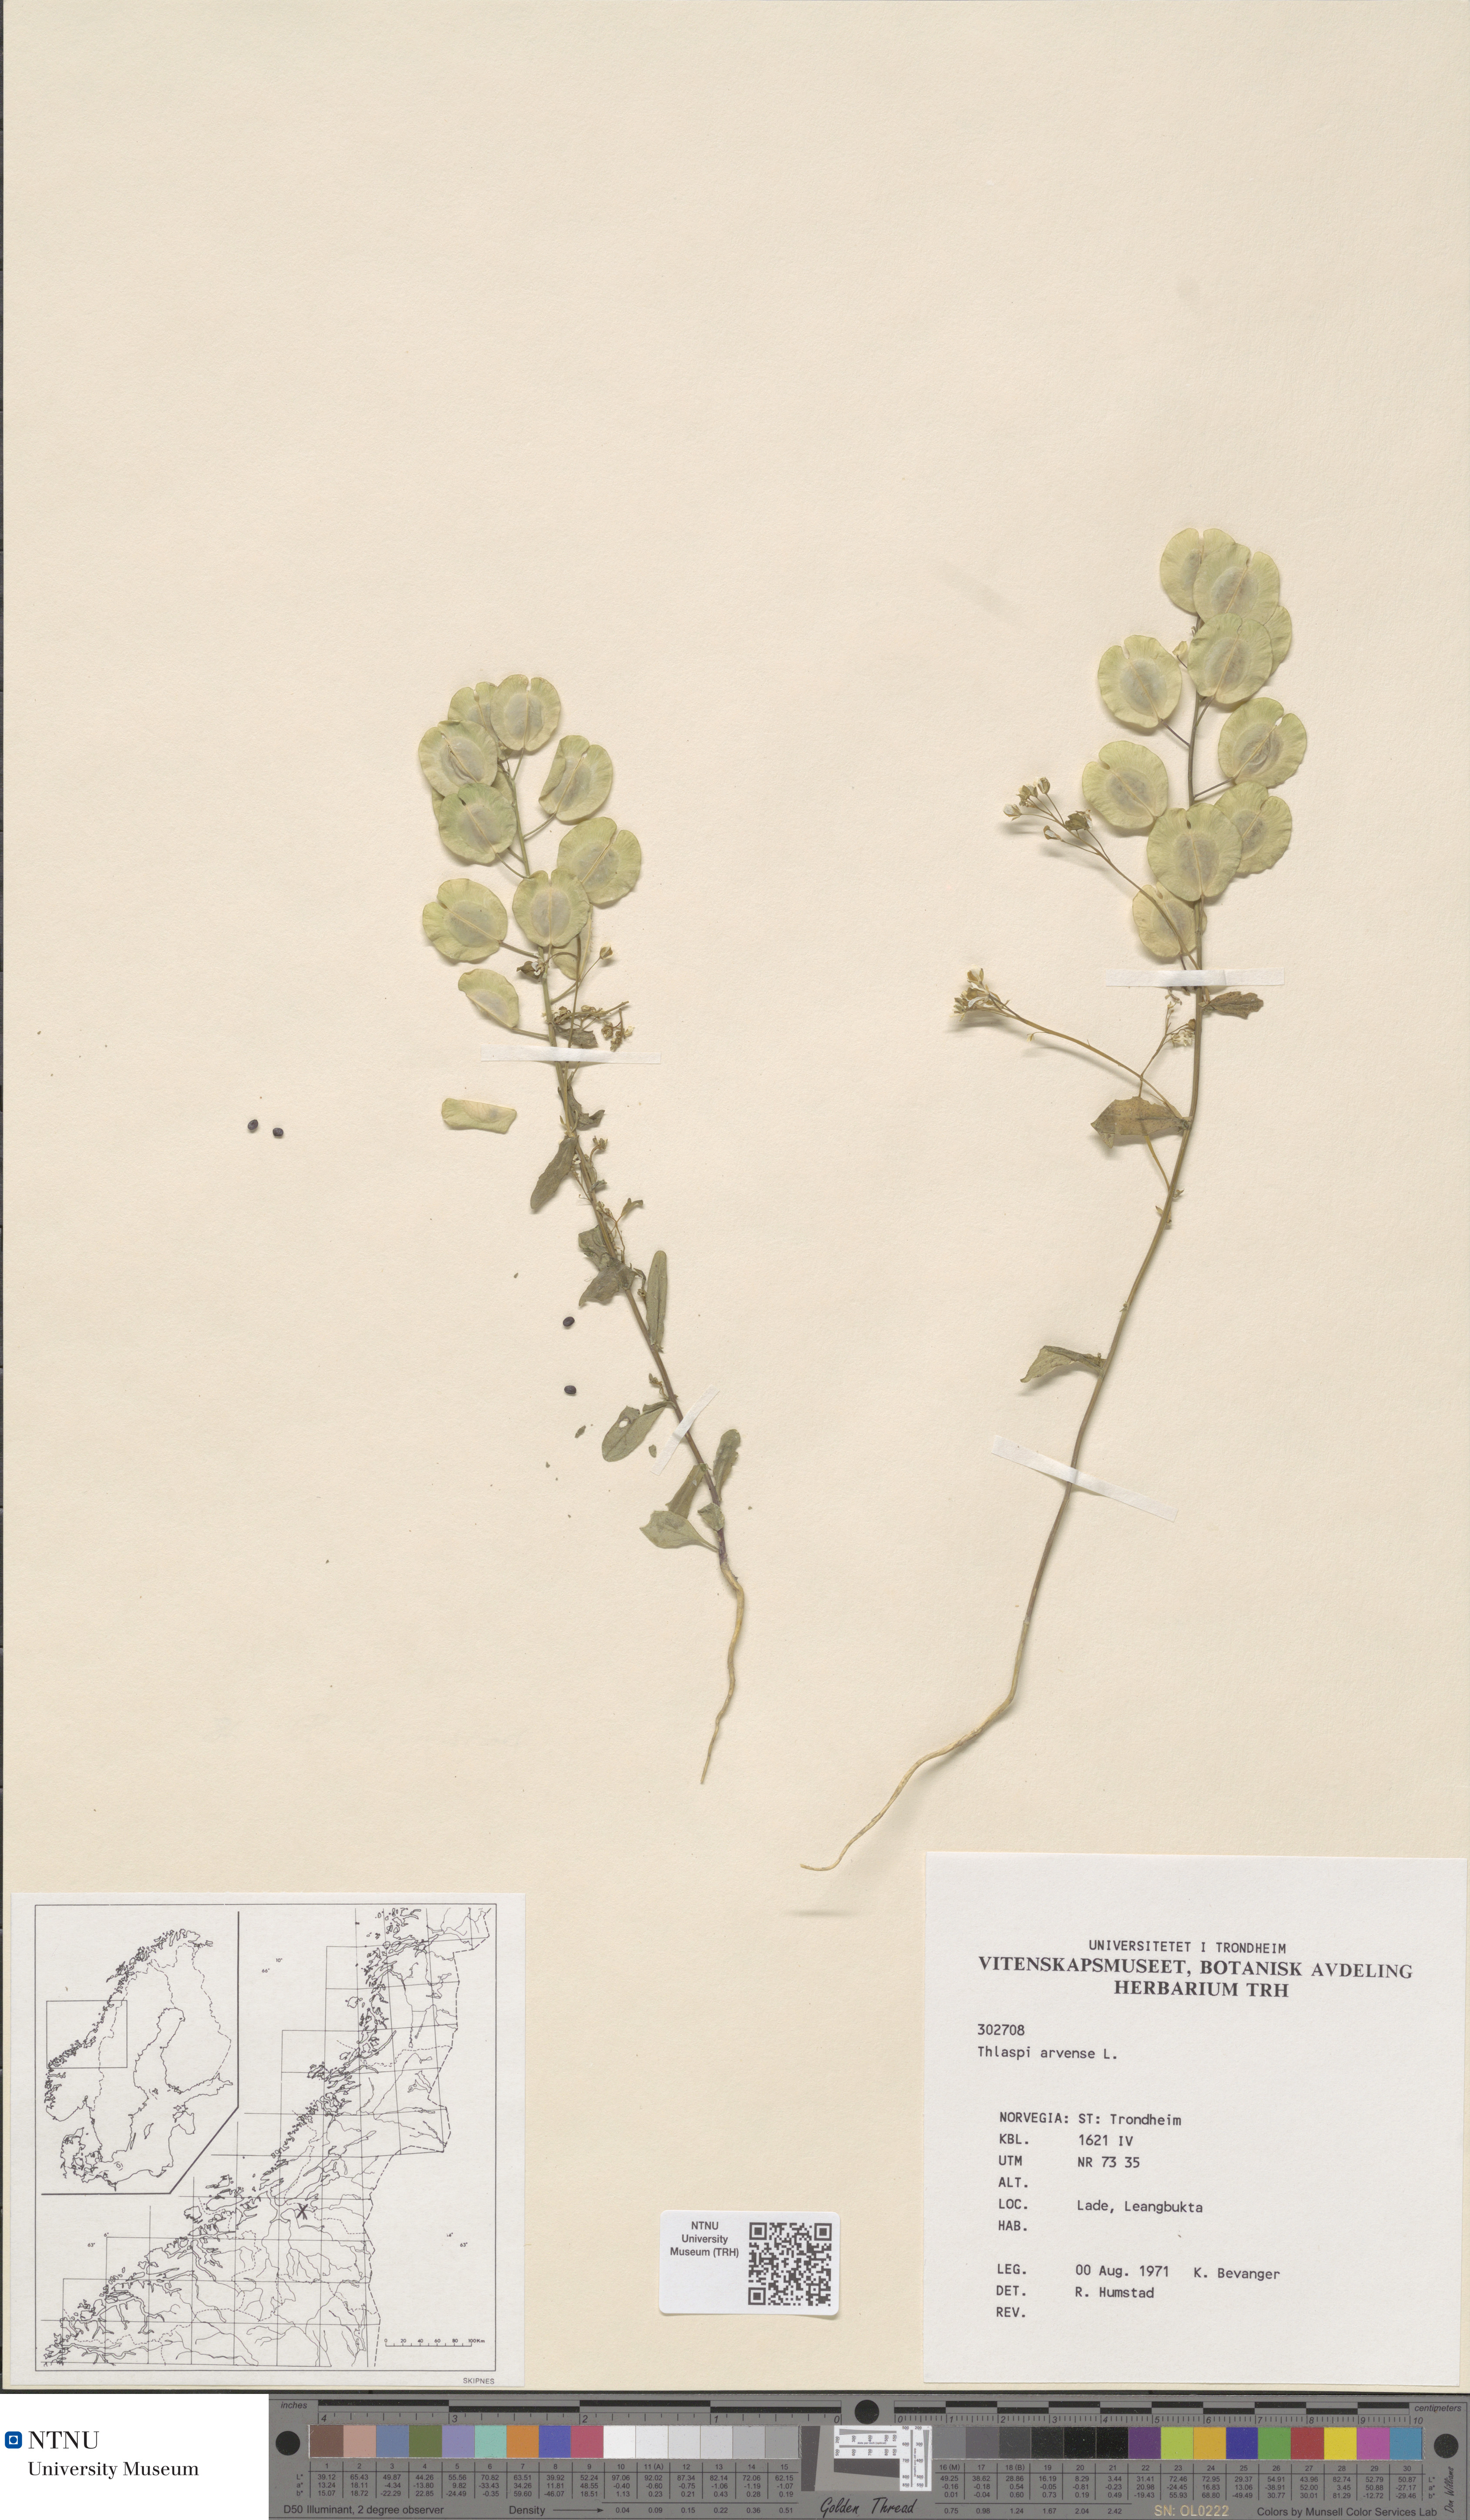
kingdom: Plantae
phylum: Tracheophyta
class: Magnoliopsida
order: Brassicales
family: Brassicaceae
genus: Thlaspi
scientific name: Thlaspi arvense
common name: Field pennycress
